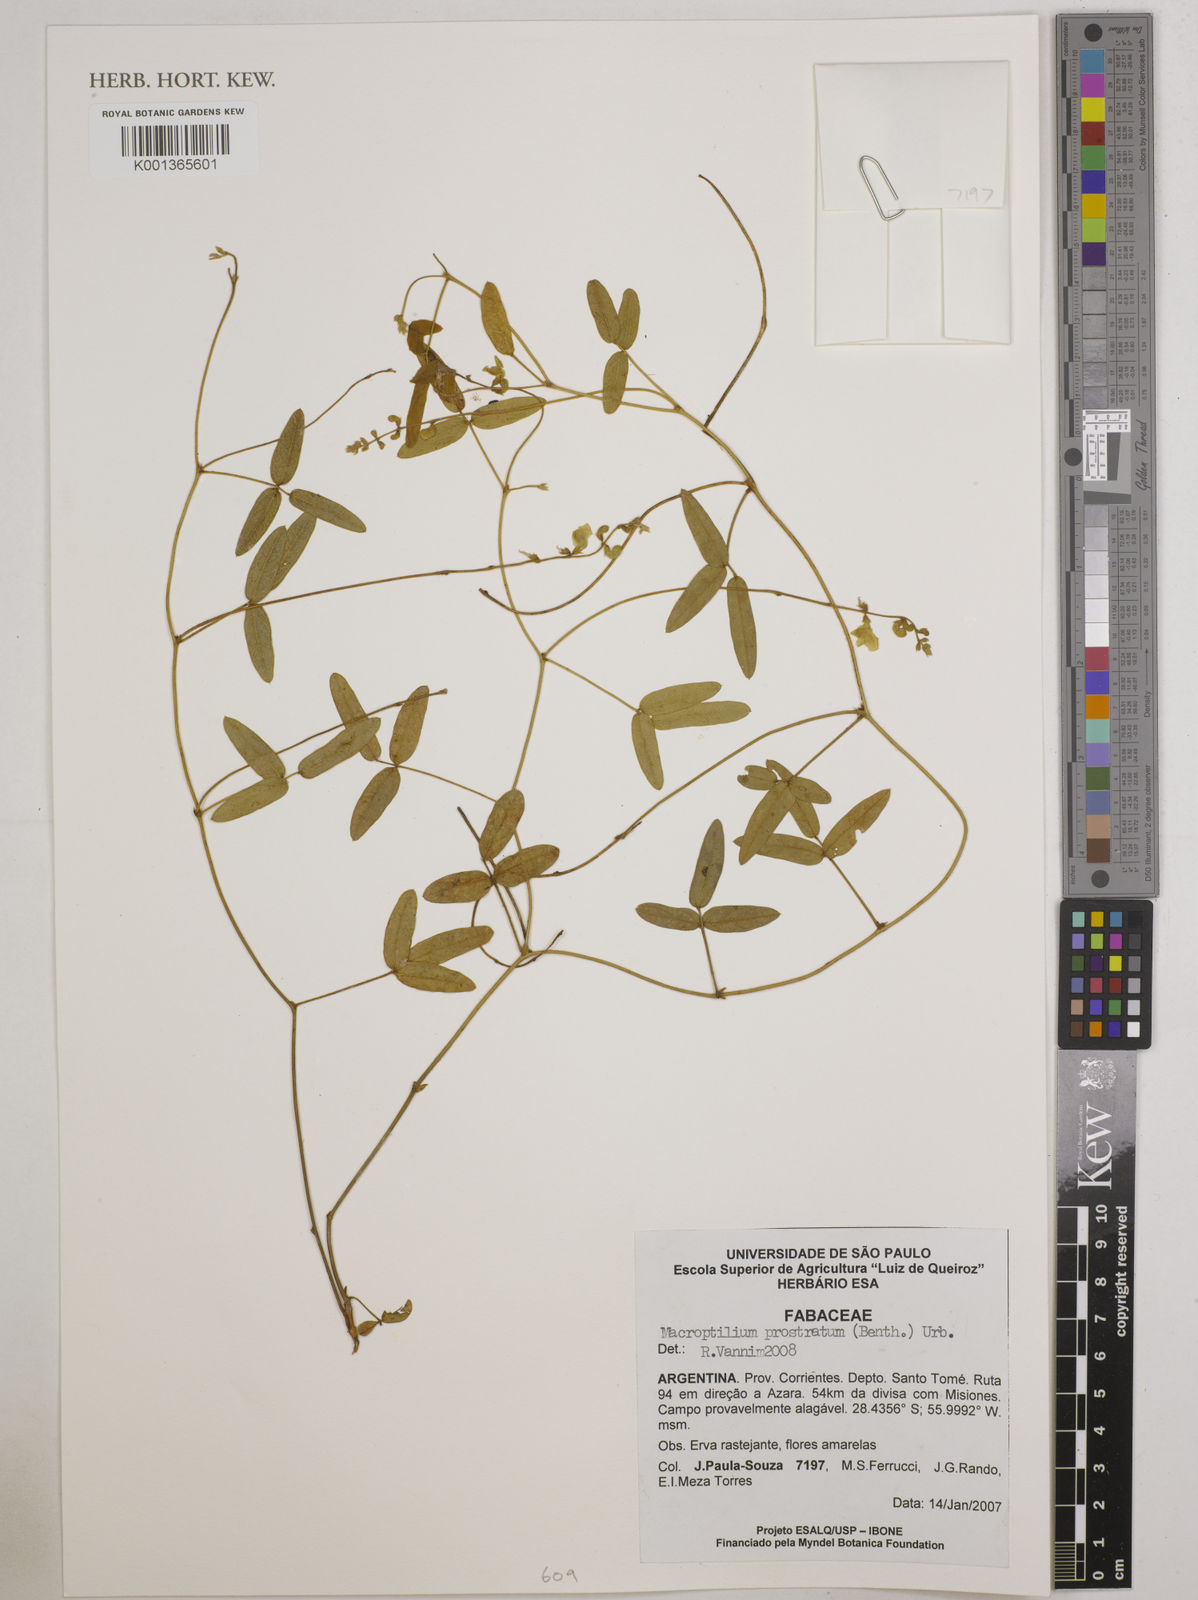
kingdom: Plantae
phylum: Tracheophyta
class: Magnoliopsida
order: Fabales
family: Fabaceae
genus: Macroptilium
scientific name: Macroptilium prostratum
